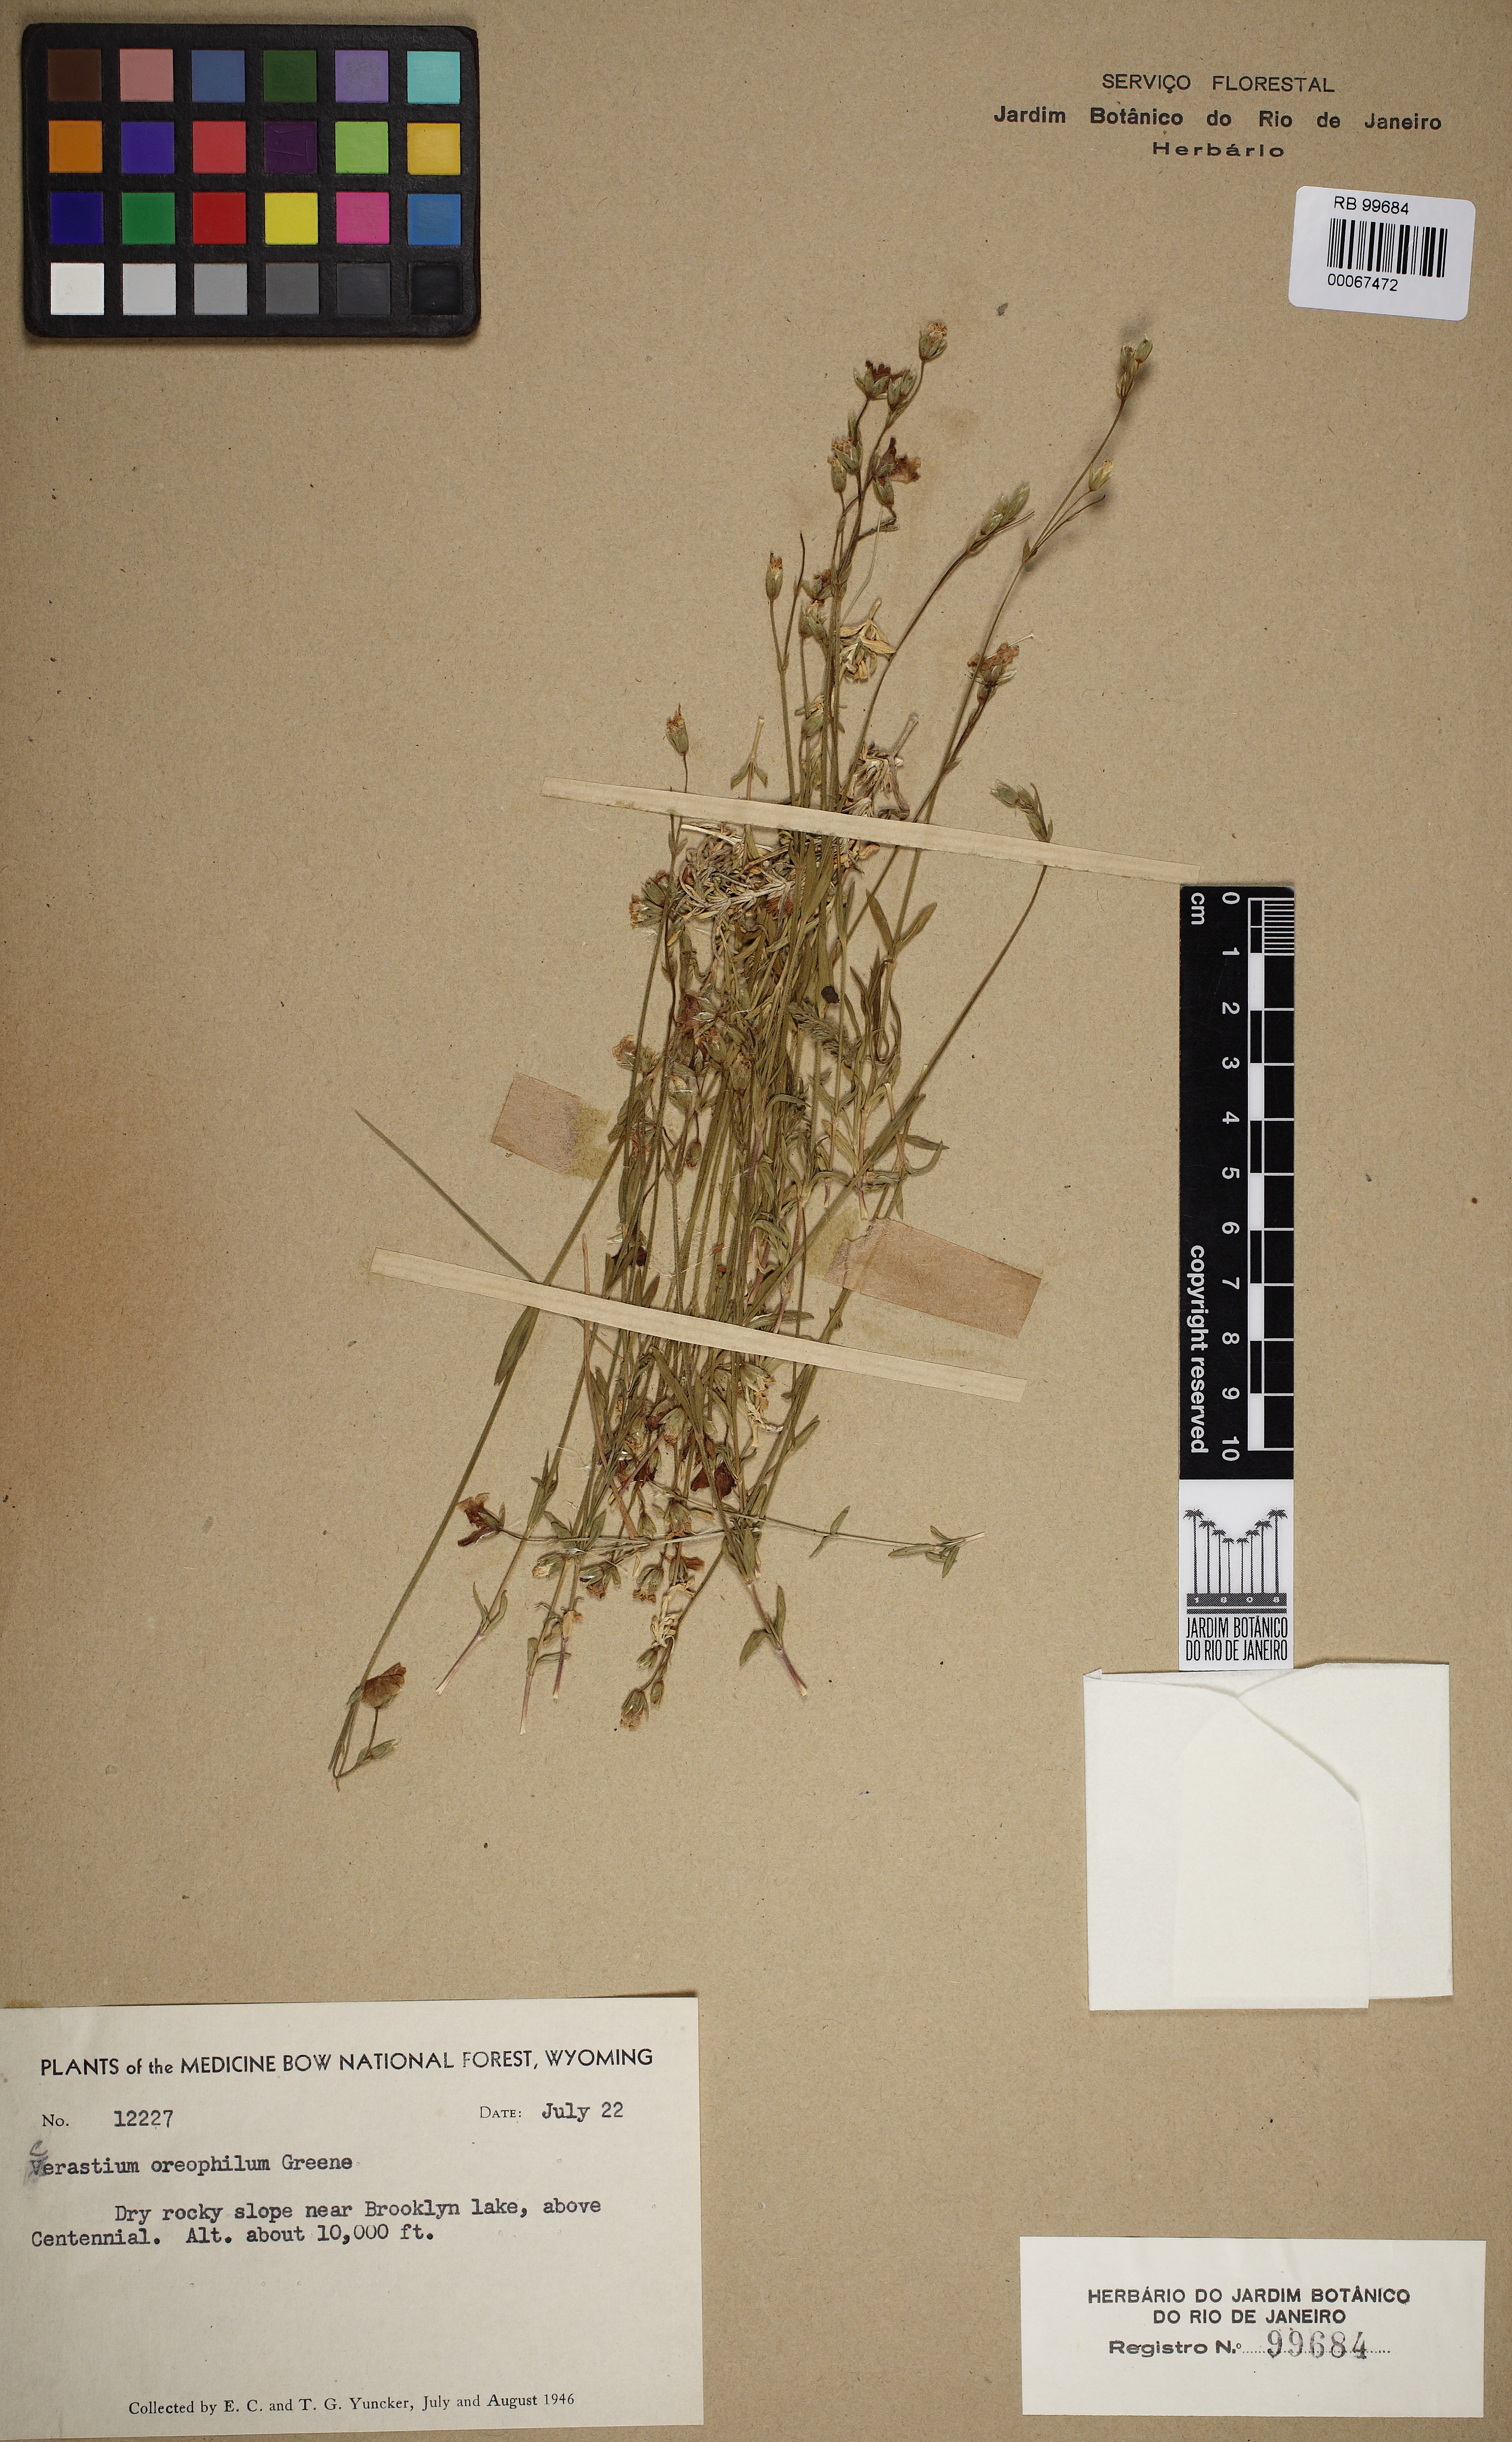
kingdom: Plantae
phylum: Tracheophyta
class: Magnoliopsida
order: Caryophyllales
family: Caryophyllaceae
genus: Cerastium
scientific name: Cerastium elongatum
